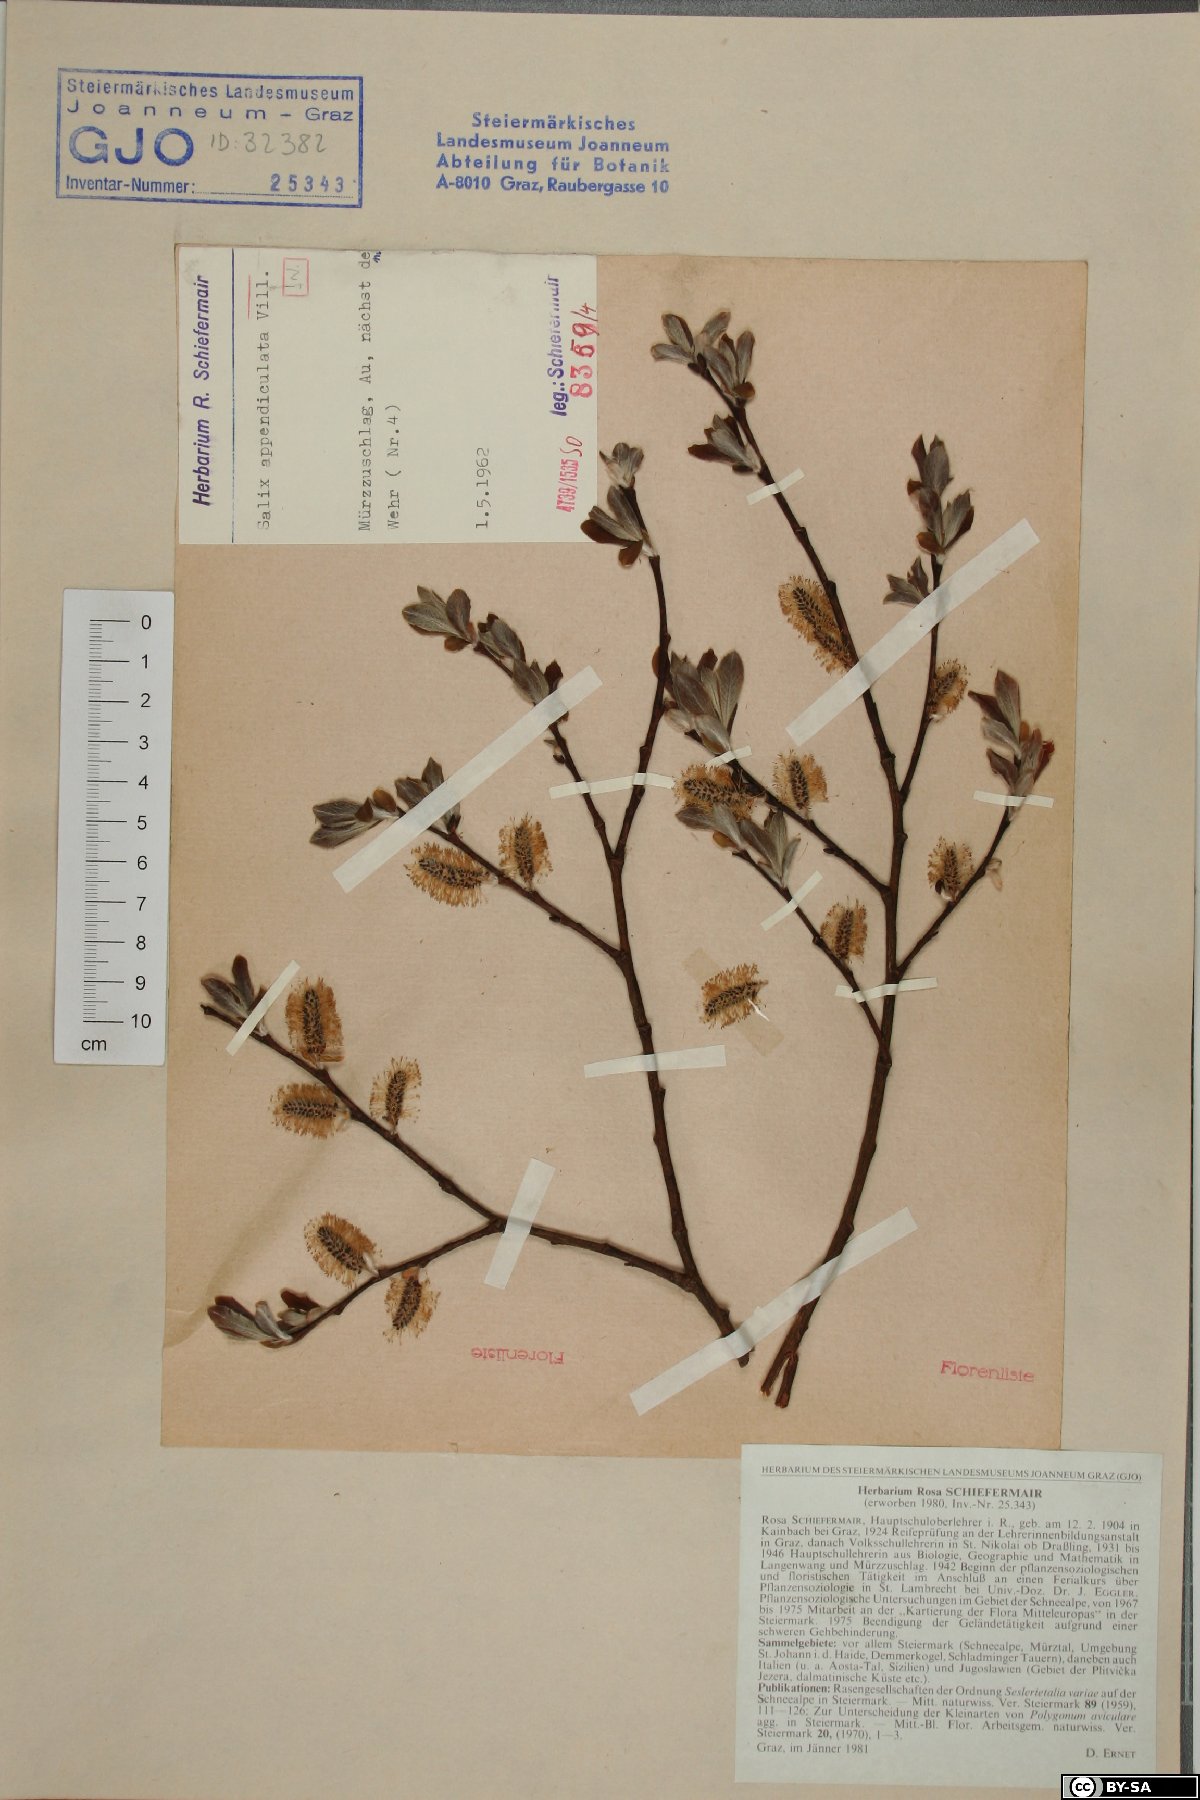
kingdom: Plantae
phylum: Tracheophyta
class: Magnoliopsida
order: Malpighiales
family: Salicaceae
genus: Salix
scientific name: Salix appendiculata
